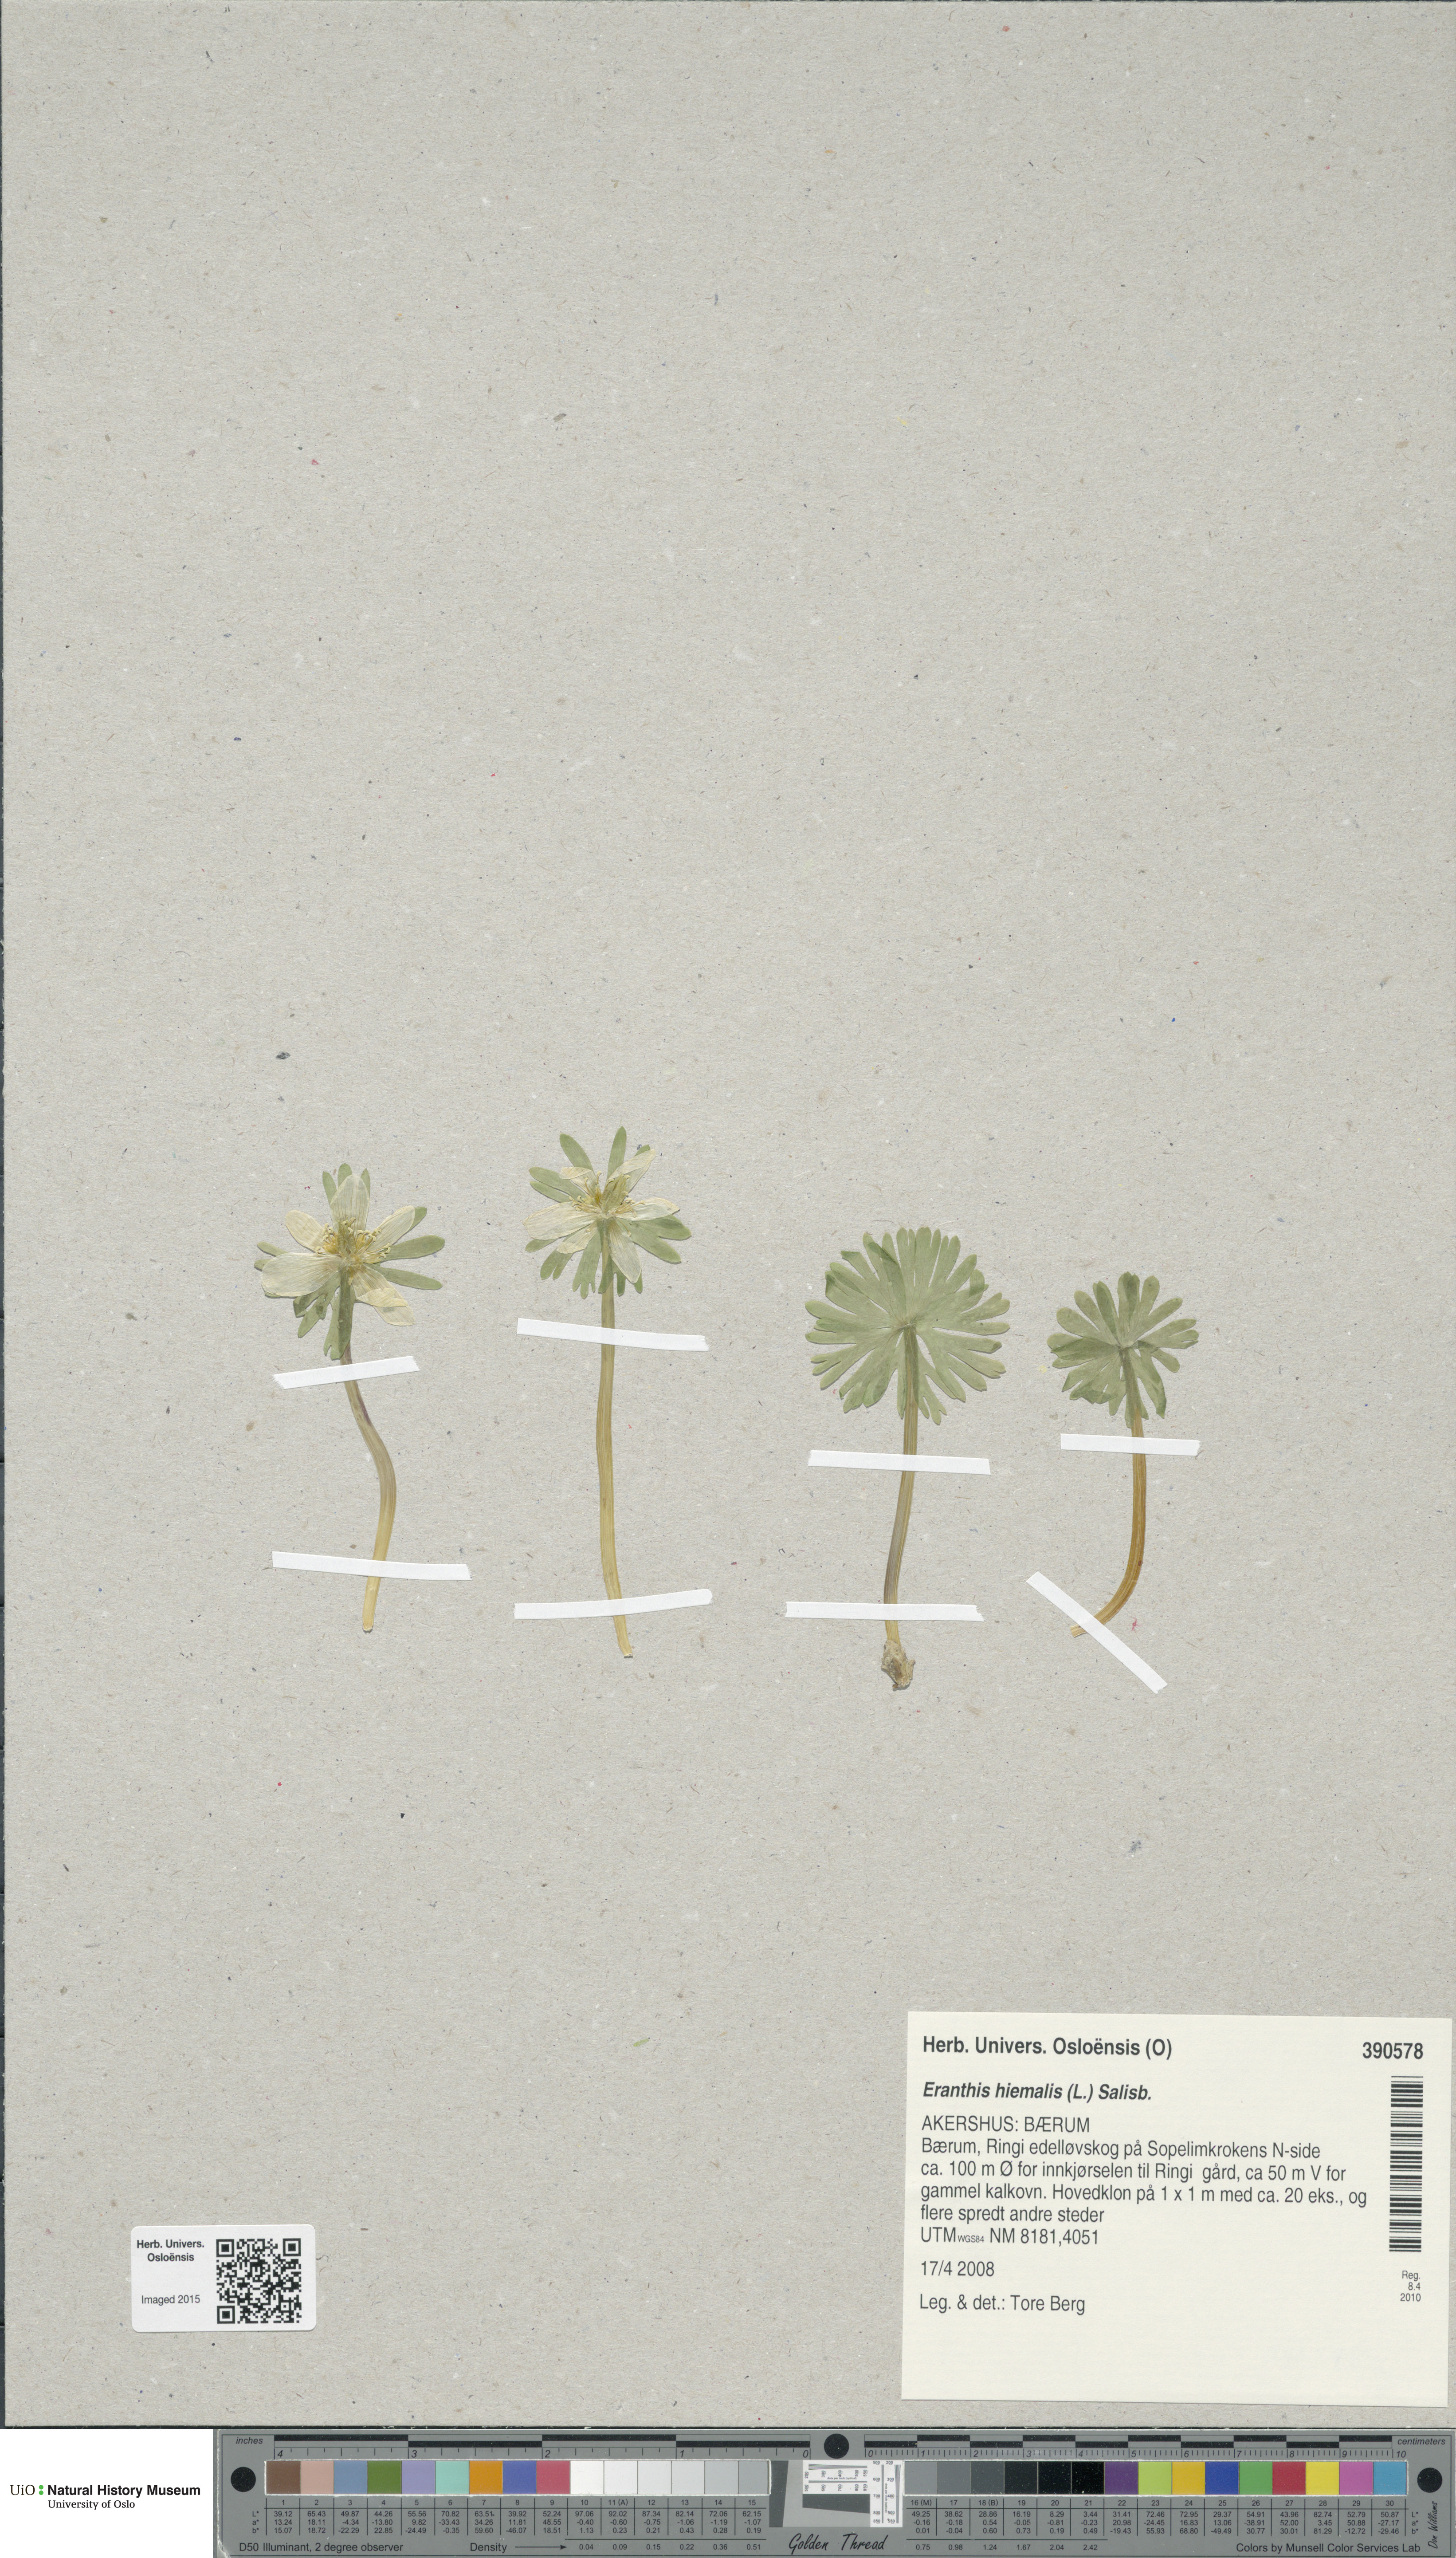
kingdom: Plantae
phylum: Tracheophyta
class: Magnoliopsida
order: Ranunculales
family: Ranunculaceae
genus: Eranthis
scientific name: Eranthis hyemalis
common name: Winter aconite
